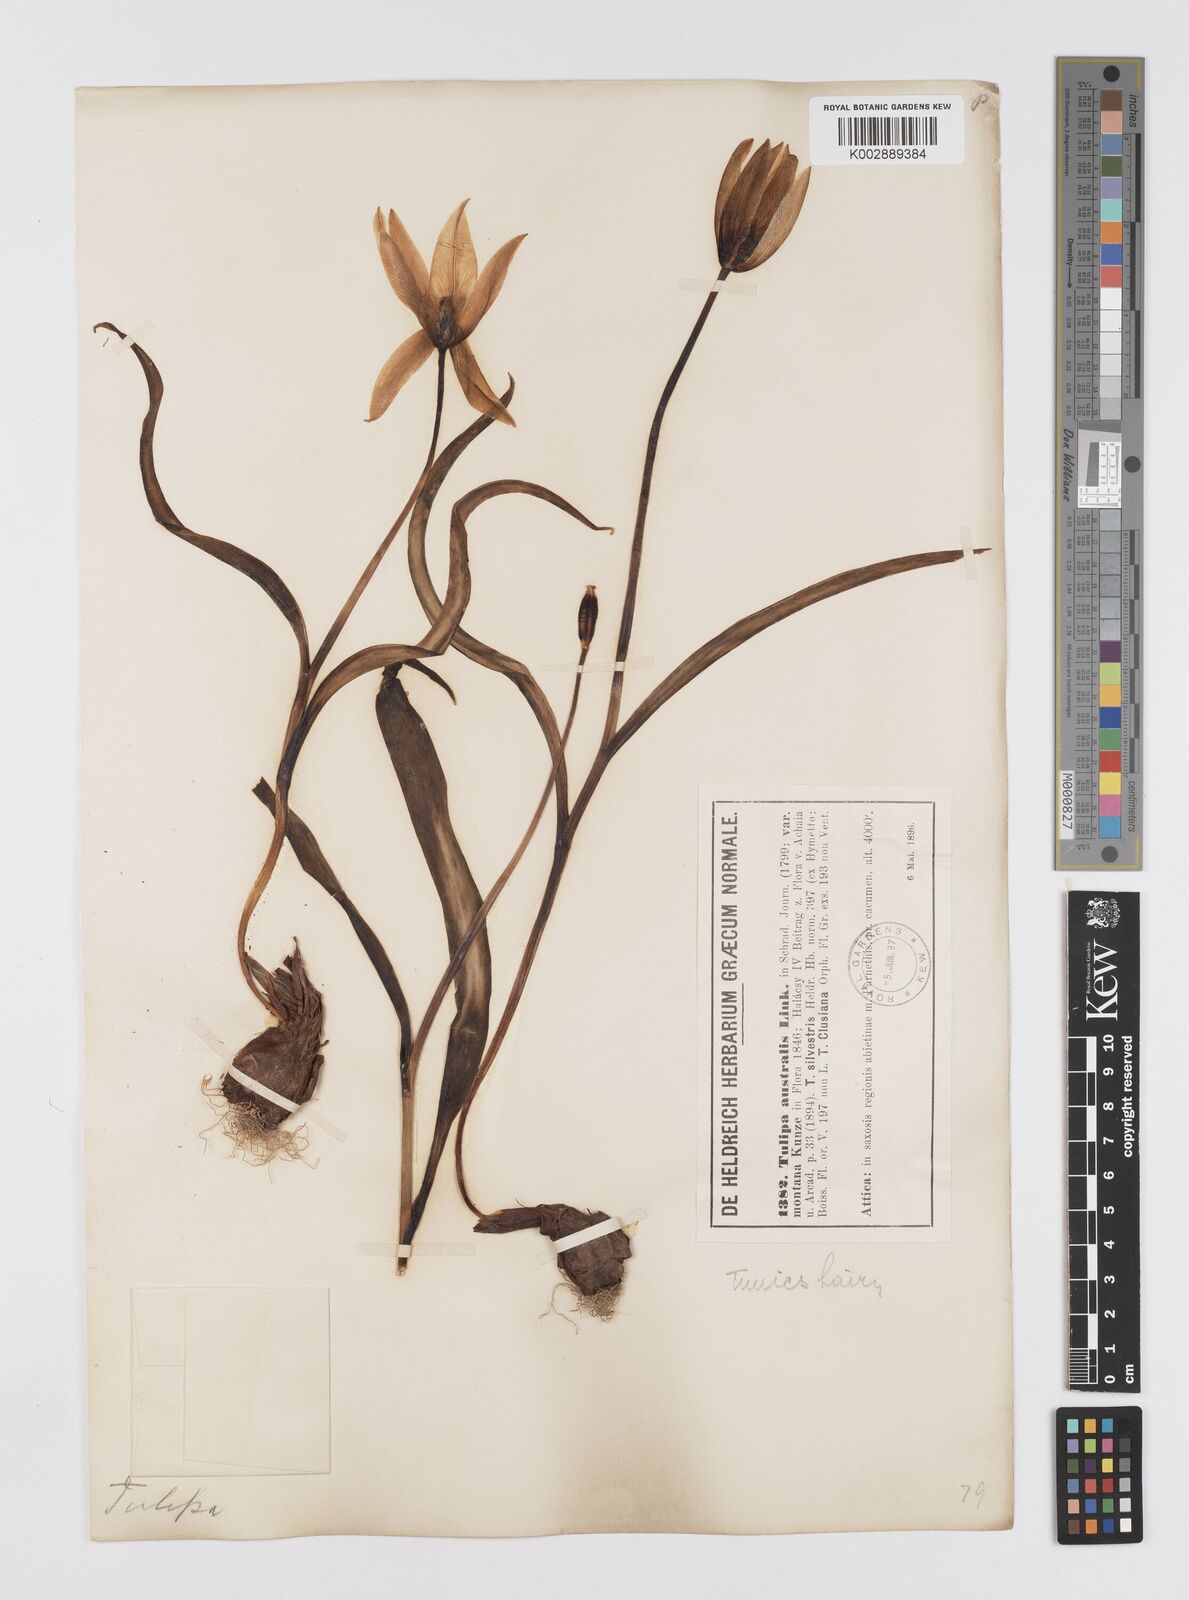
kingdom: Plantae
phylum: Tracheophyta
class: Liliopsida
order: Liliales
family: Liliaceae
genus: Tulipa
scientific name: Tulipa sylvestris
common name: Wild tulip
